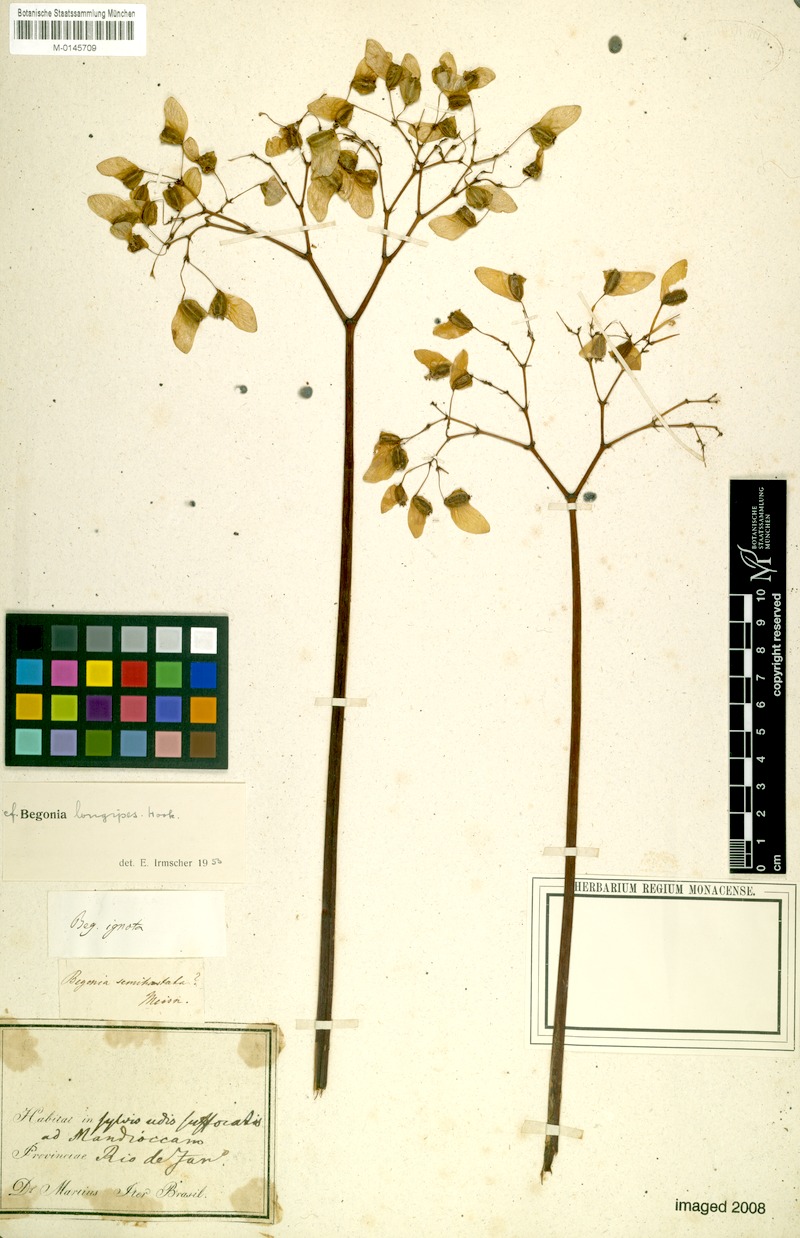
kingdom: Plantae
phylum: Tracheophyta
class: Magnoliopsida
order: Cucurbitales
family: Begoniaceae
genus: Begonia
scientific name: Begonia reniformis
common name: Grapeleaf begonia
